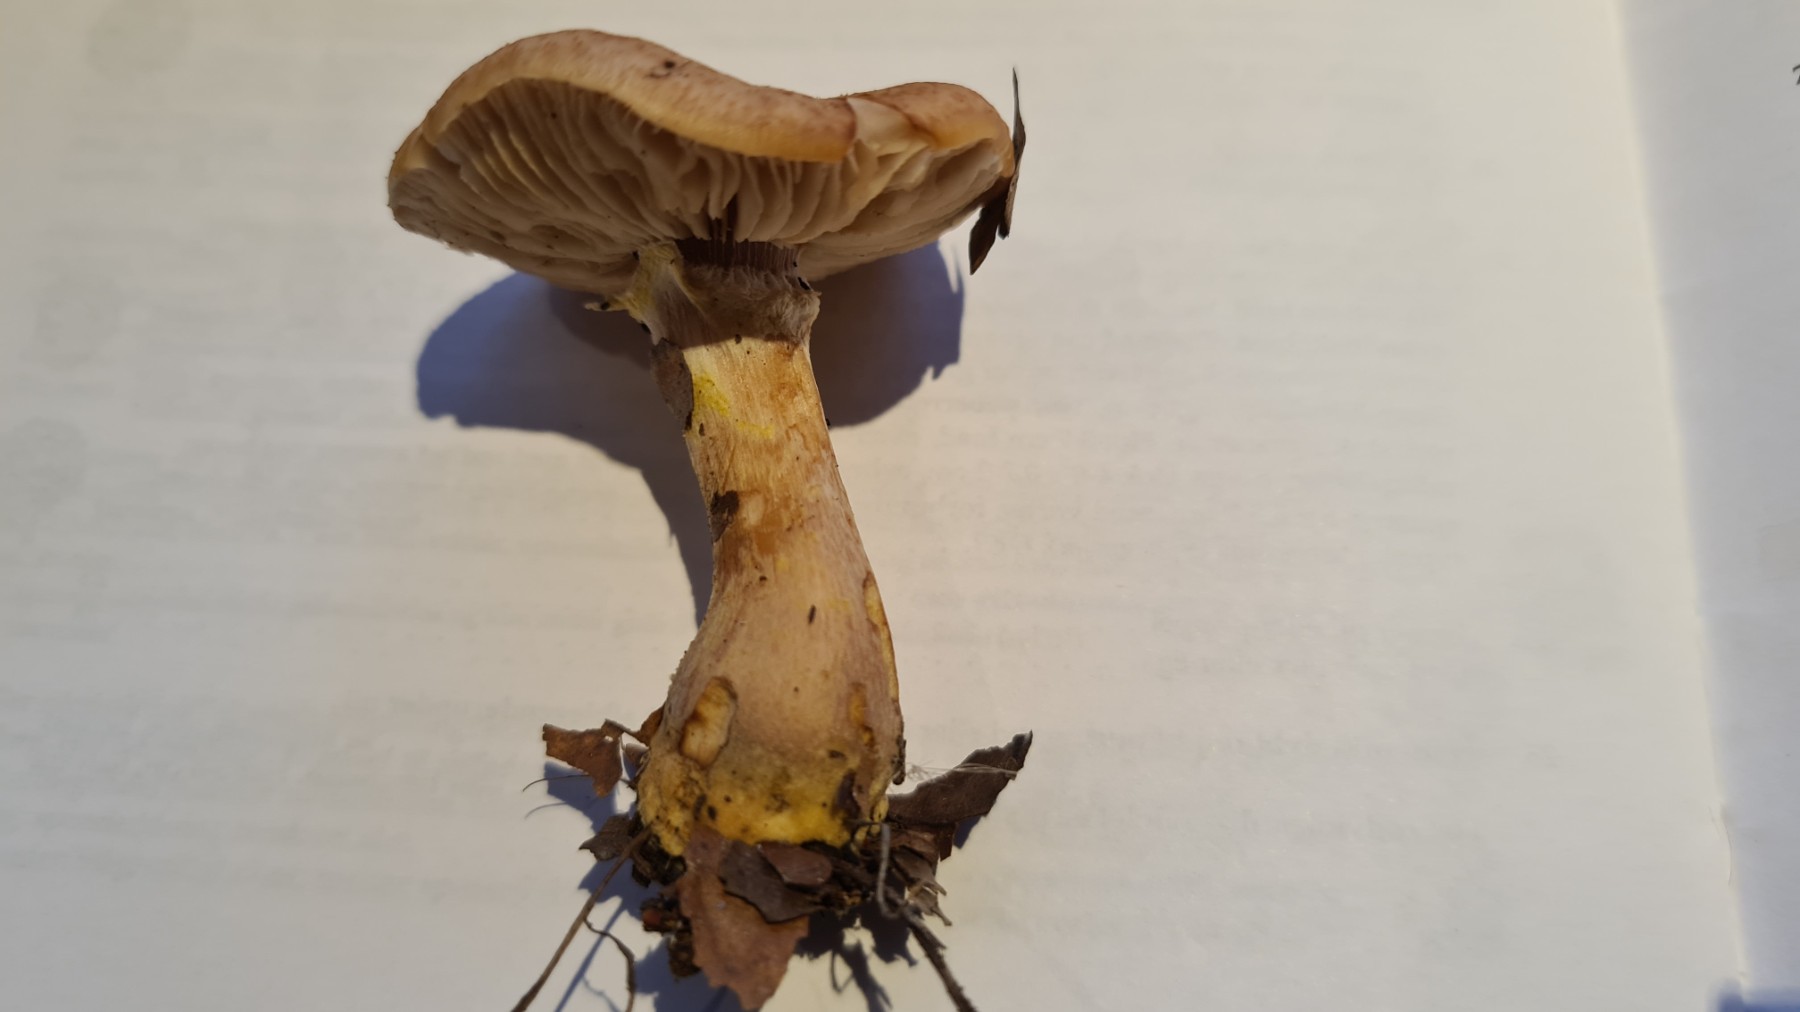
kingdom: Fungi
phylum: Basidiomycota
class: Agaricomycetes
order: Agaricales
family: Physalacriaceae
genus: Armillaria
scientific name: Armillaria lutea
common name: køllestokket honningsvamp
